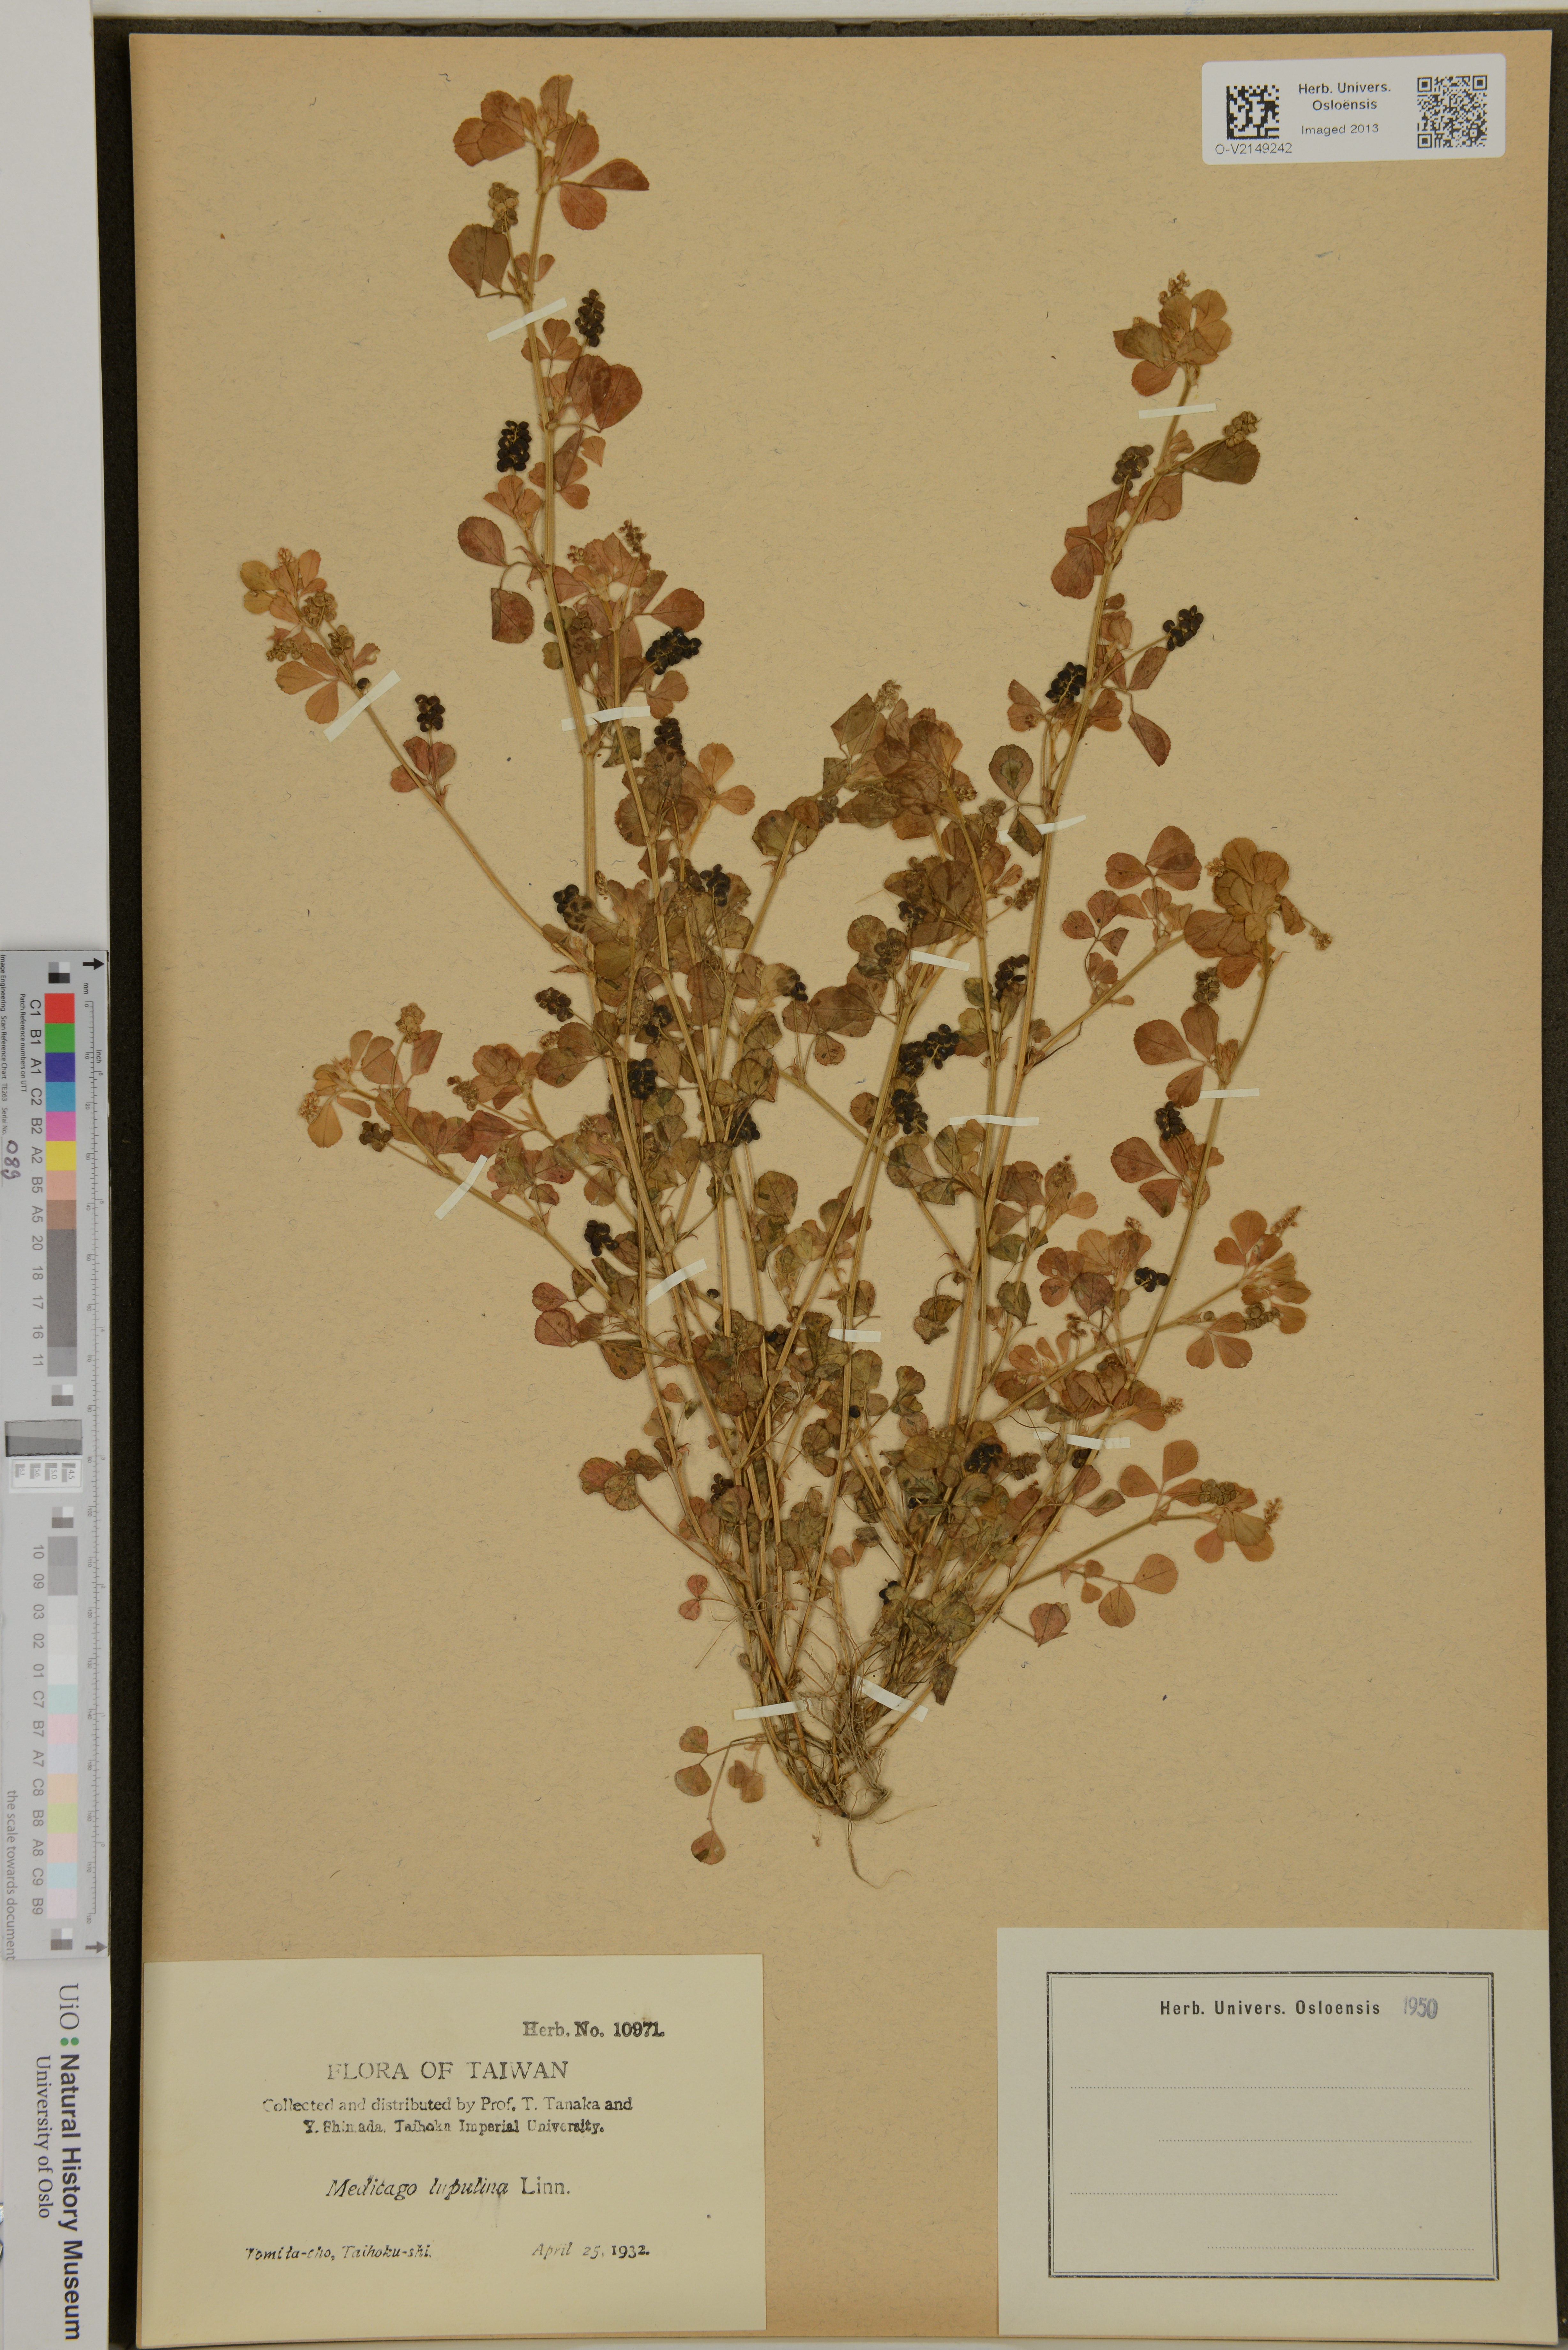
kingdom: Plantae
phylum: Tracheophyta
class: Magnoliopsida
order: Fabales
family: Fabaceae
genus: Medicago
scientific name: Medicago lupulina
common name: Black medick
